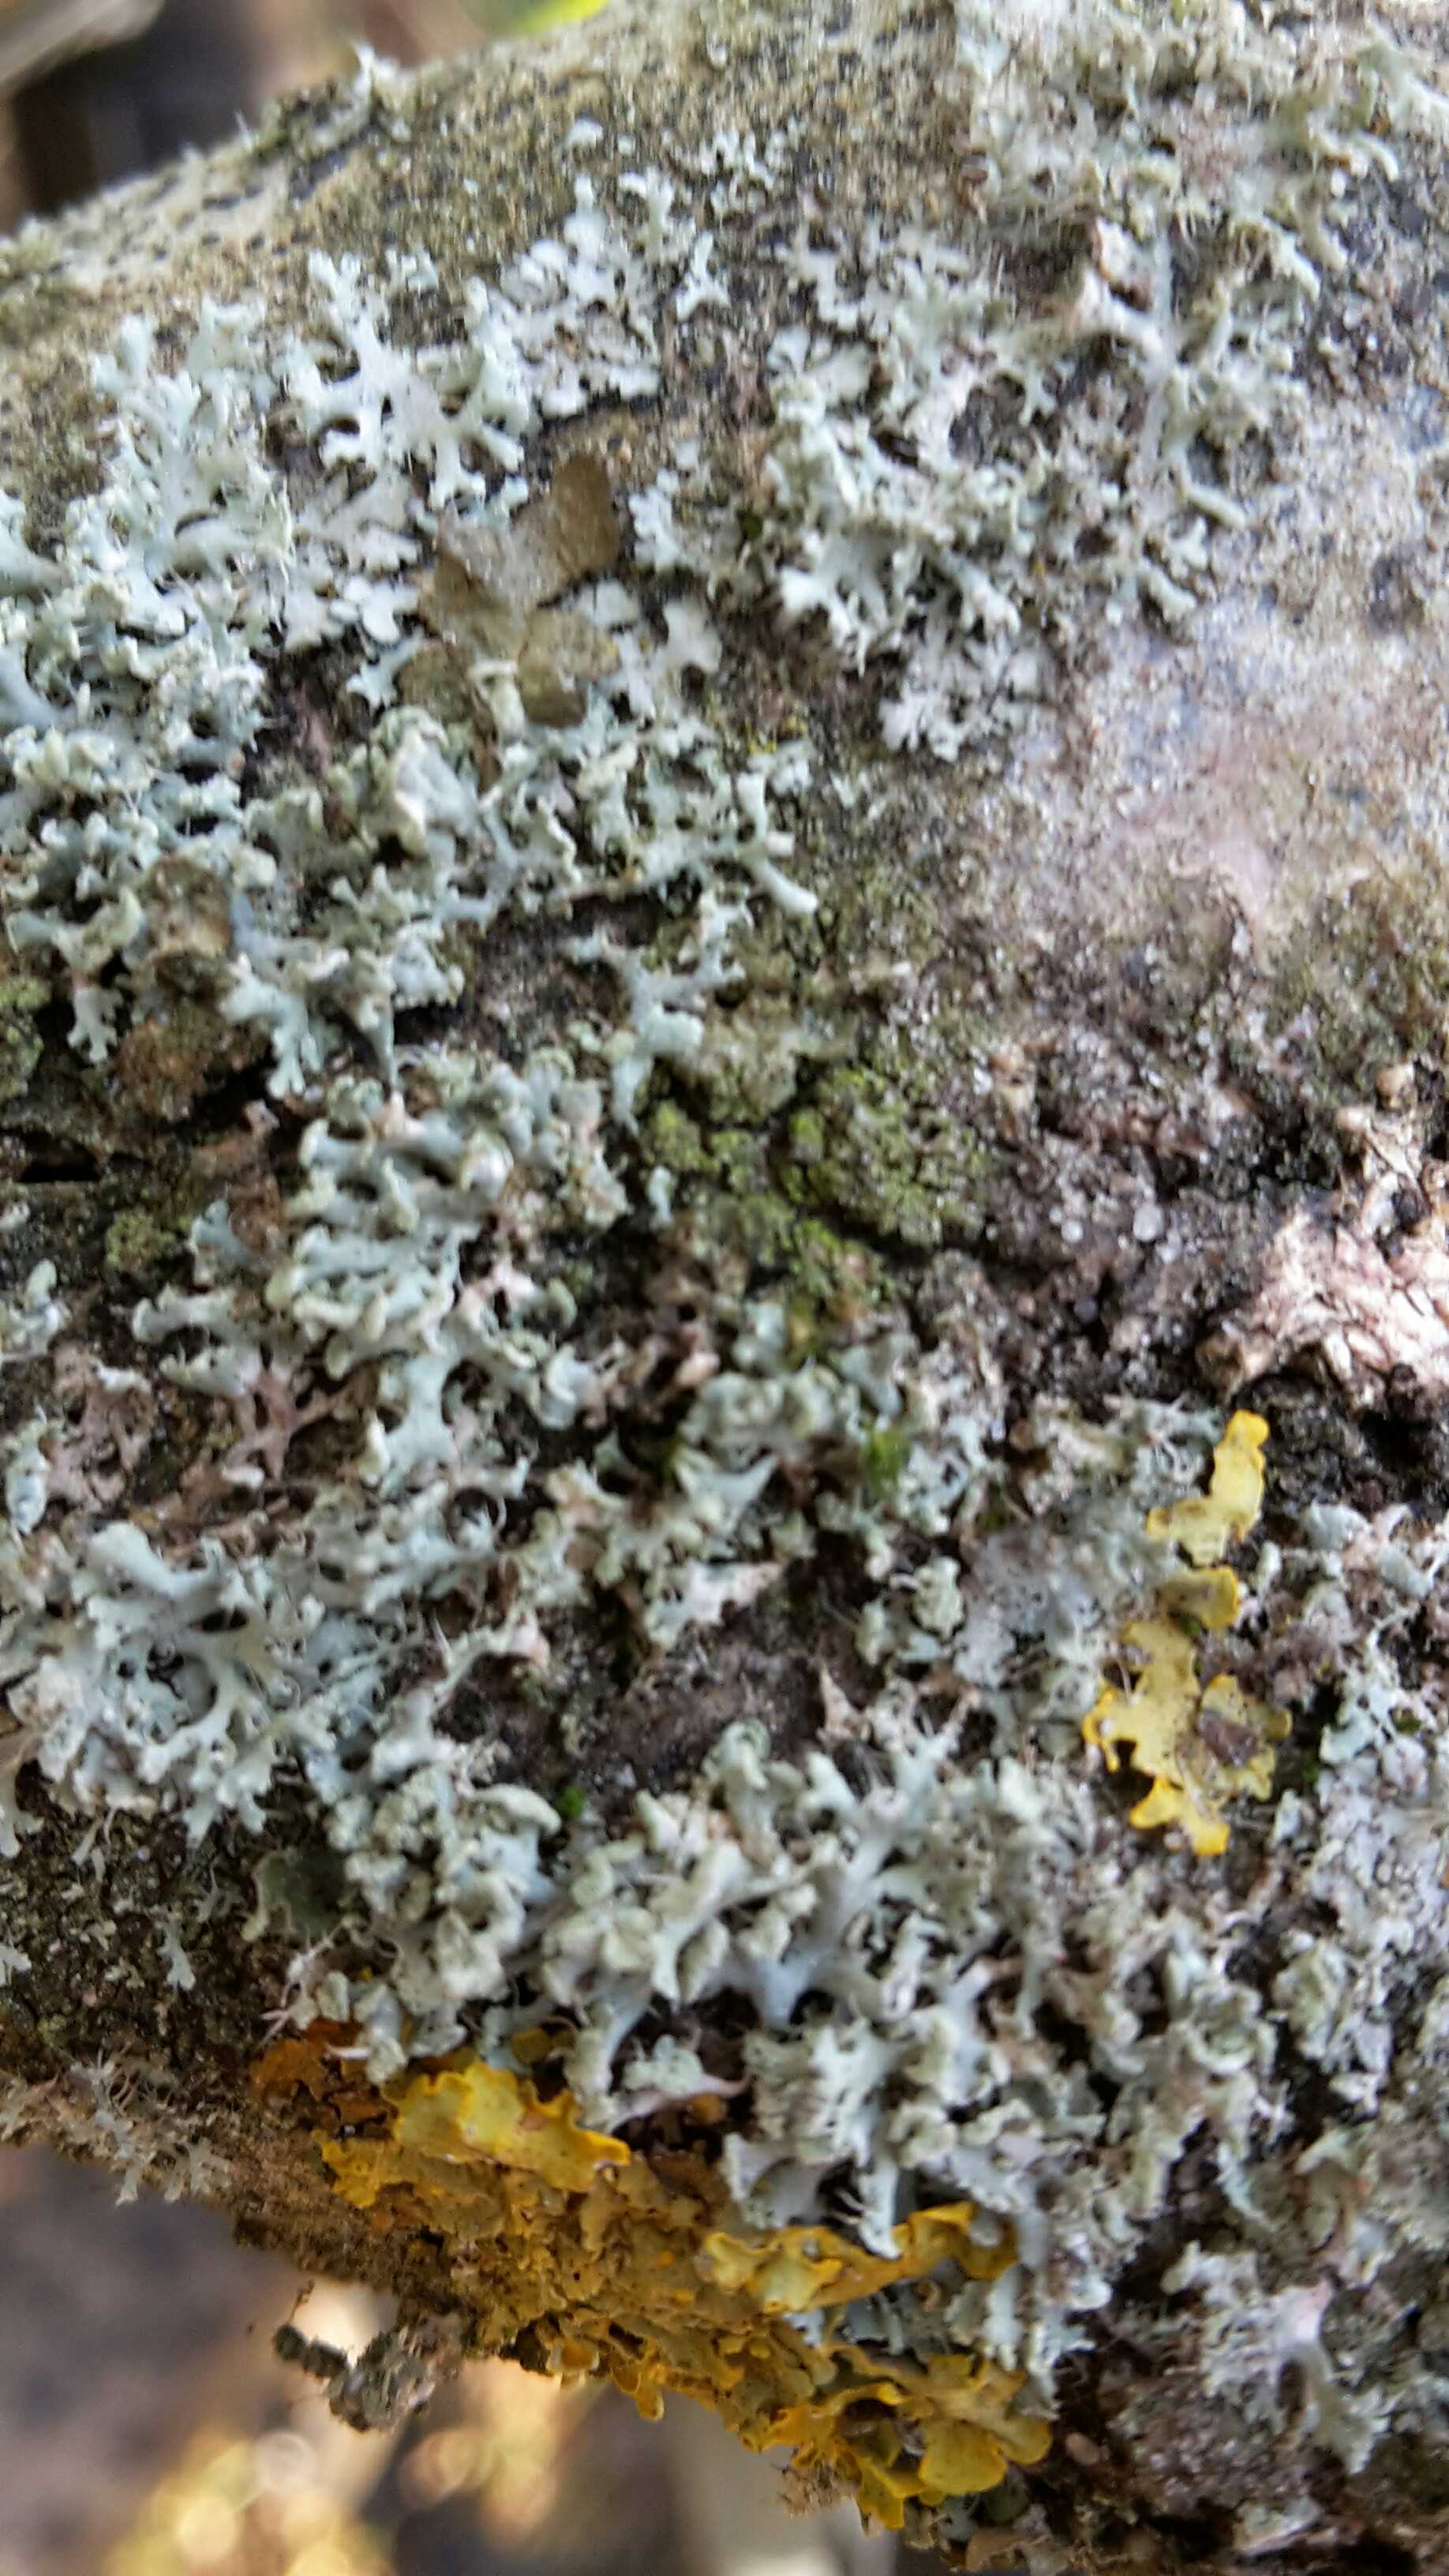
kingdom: Fungi
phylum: Ascomycota
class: Lecanoromycetes
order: Caliciales
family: Physciaceae
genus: Physcia
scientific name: Physcia tenella
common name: spæd rosetlav
